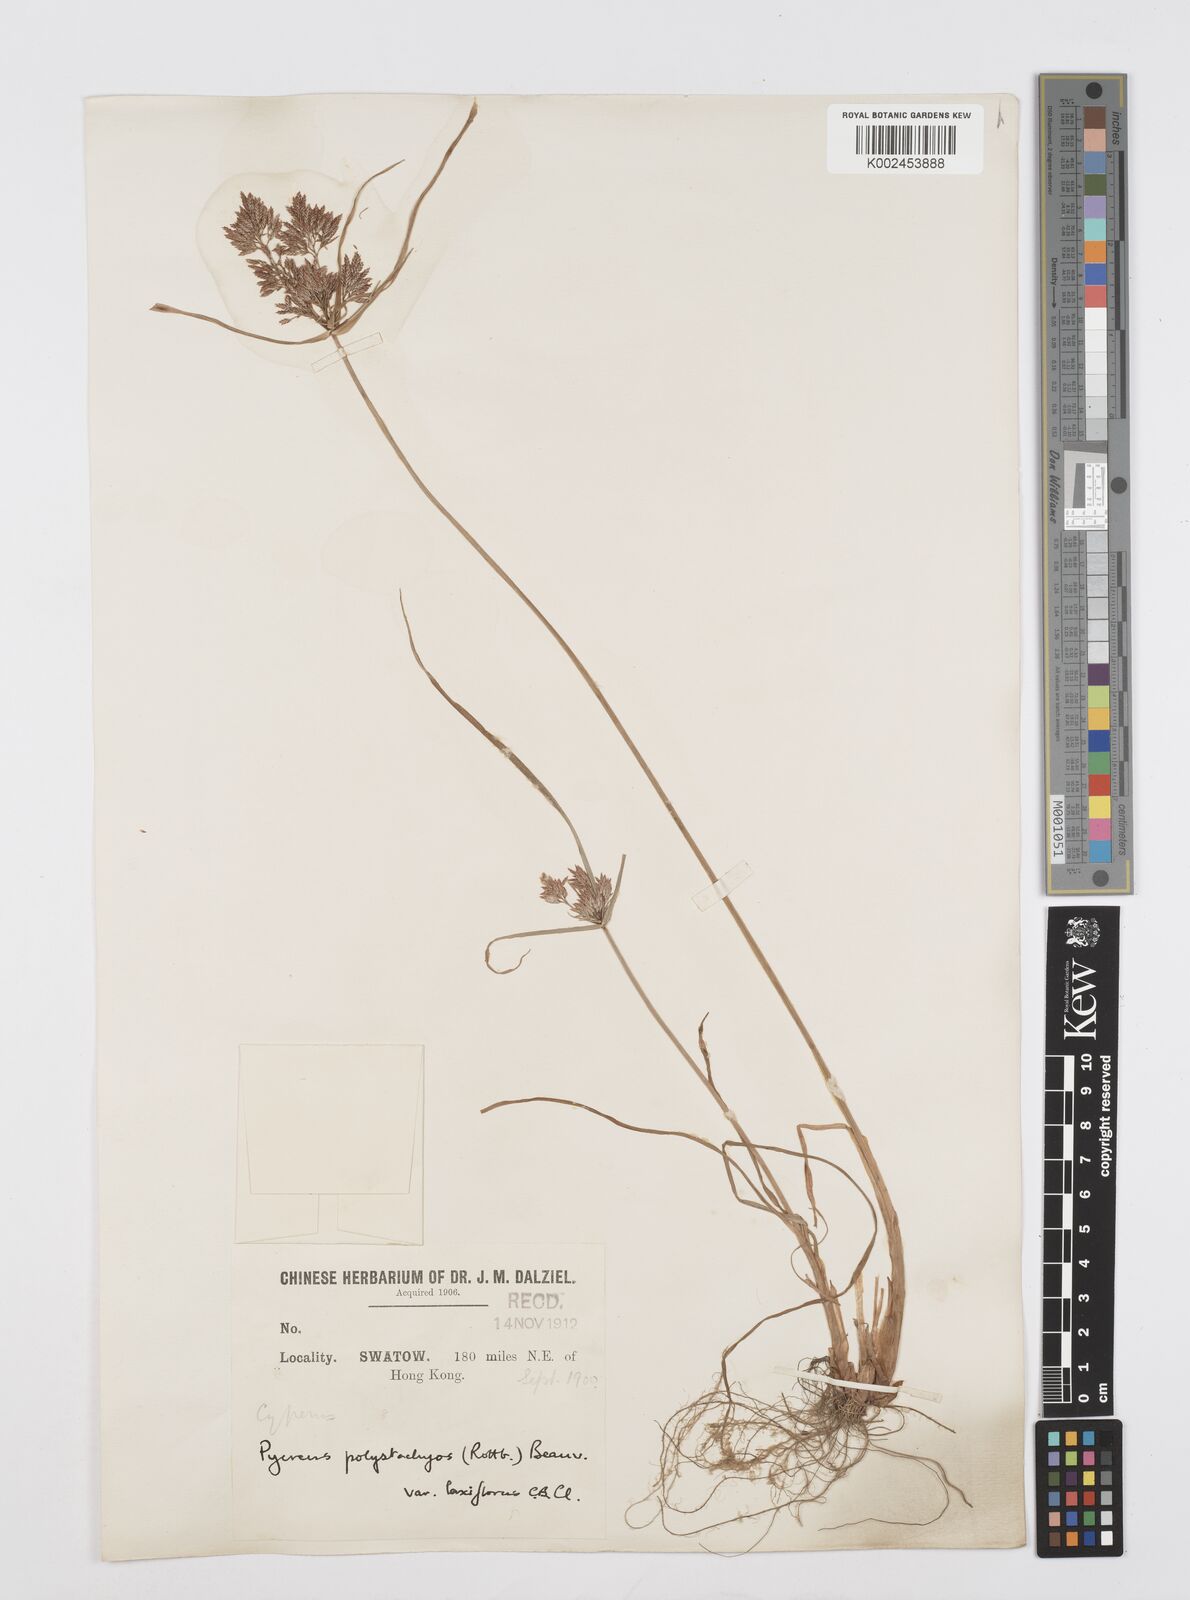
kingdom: Plantae
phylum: Tracheophyta
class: Liliopsida
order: Poales
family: Cyperaceae
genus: Cyperus
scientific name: Cyperus polystachyos
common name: Bunchy flat sedge
